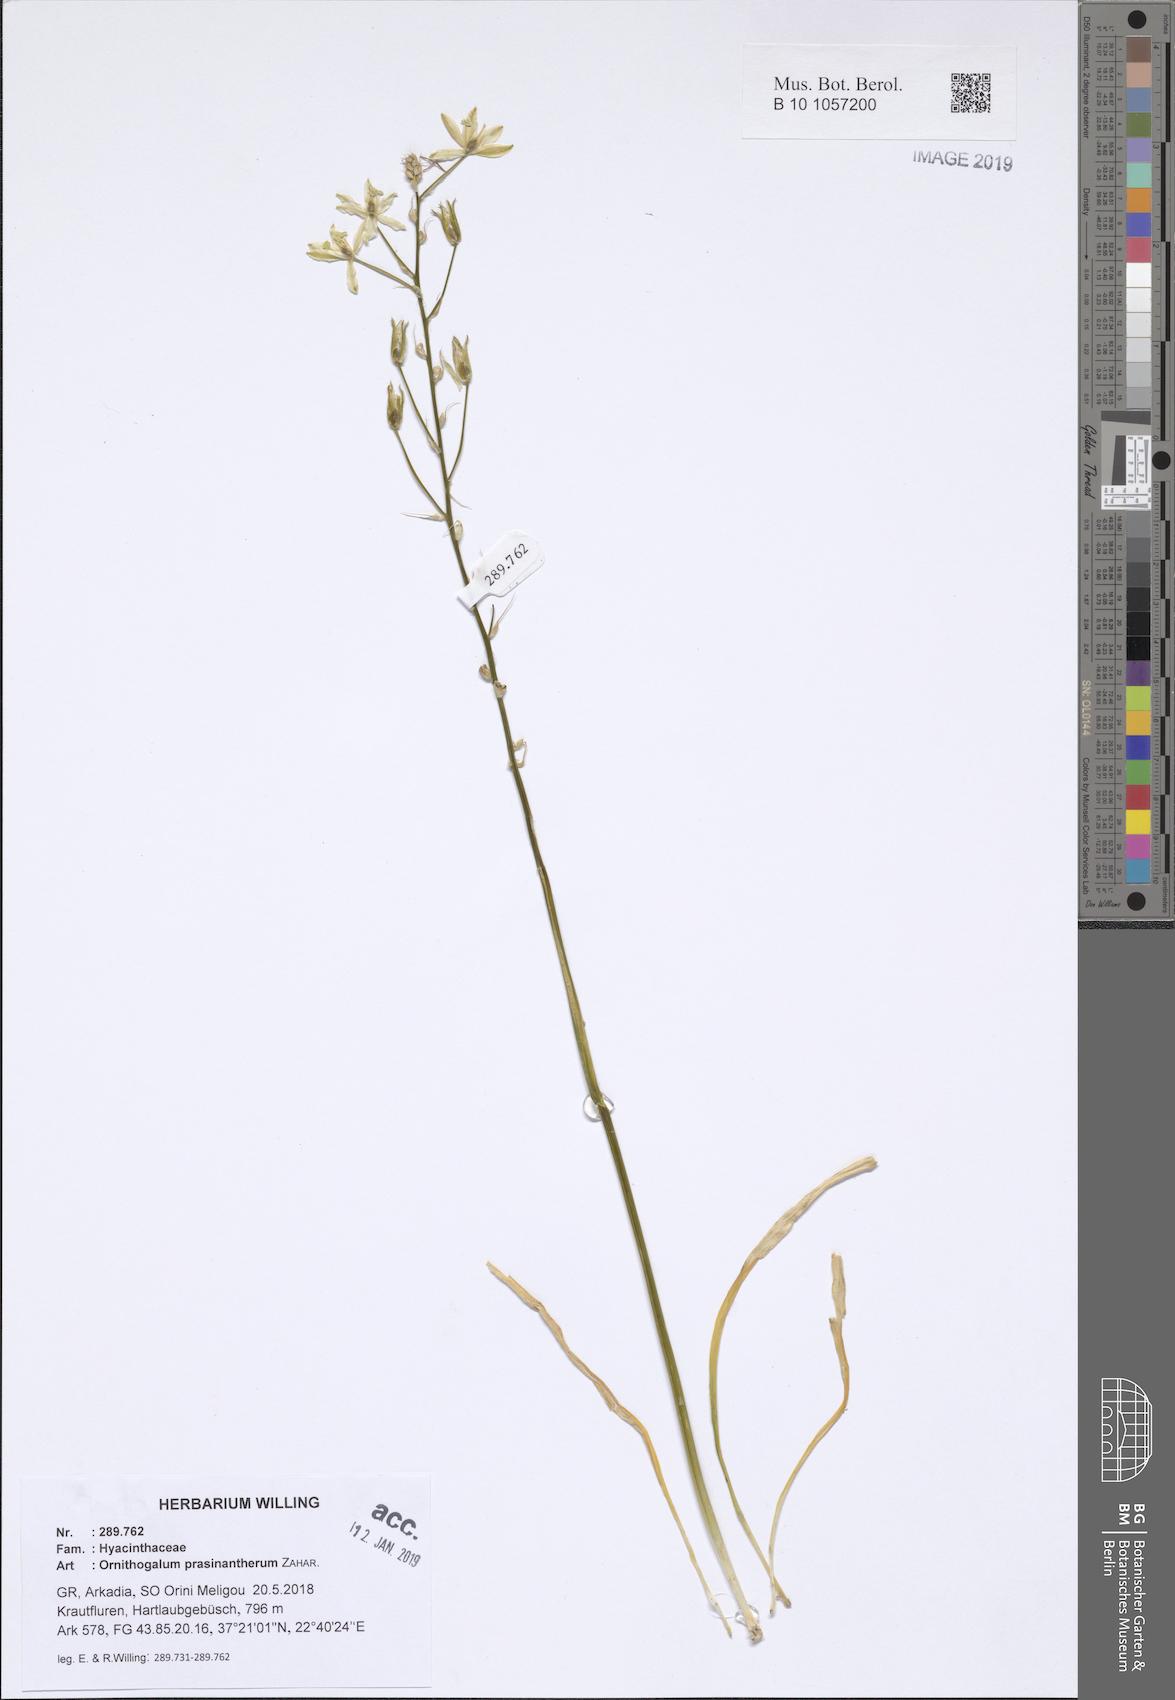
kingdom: Plantae
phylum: Tracheophyta
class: Liliopsida
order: Asparagales
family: Asparagaceae
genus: Ornithogalum
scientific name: Ornithogalum prasinantherum
